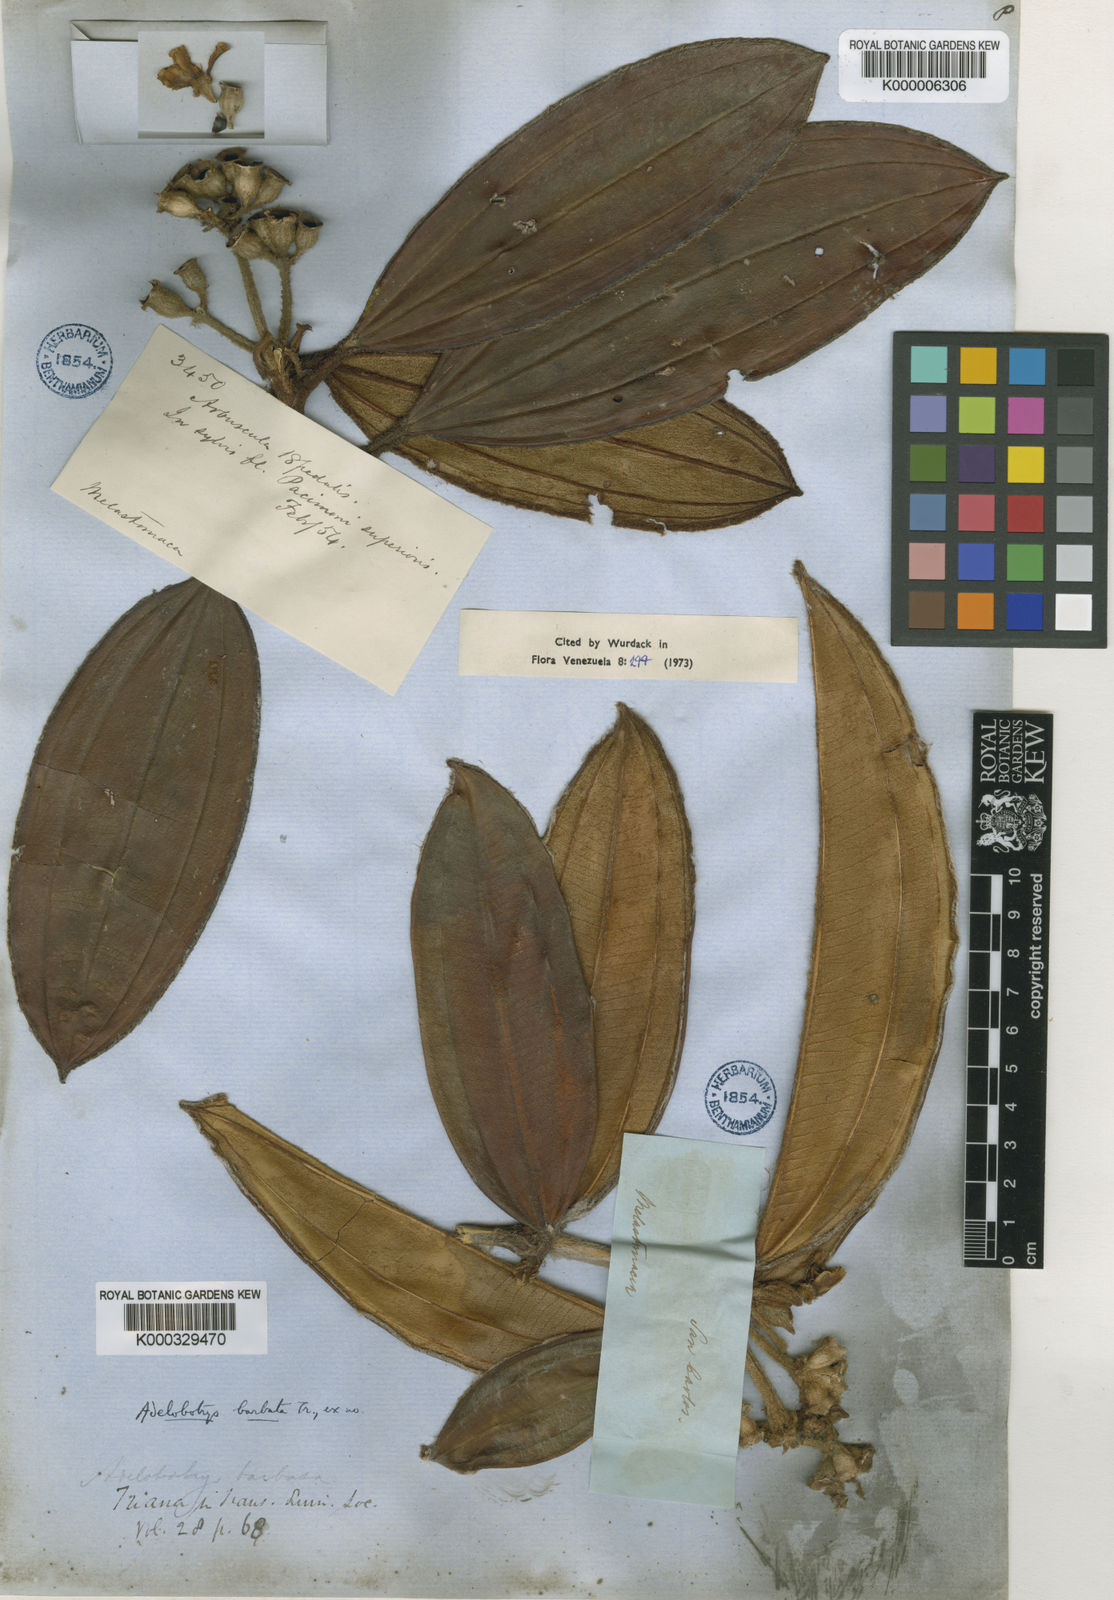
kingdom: Plantae
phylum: Tracheophyta
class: Magnoliopsida
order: Myrtales
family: Melastomataceae
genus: Adelobotrys
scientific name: Adelobotrys barbatus
